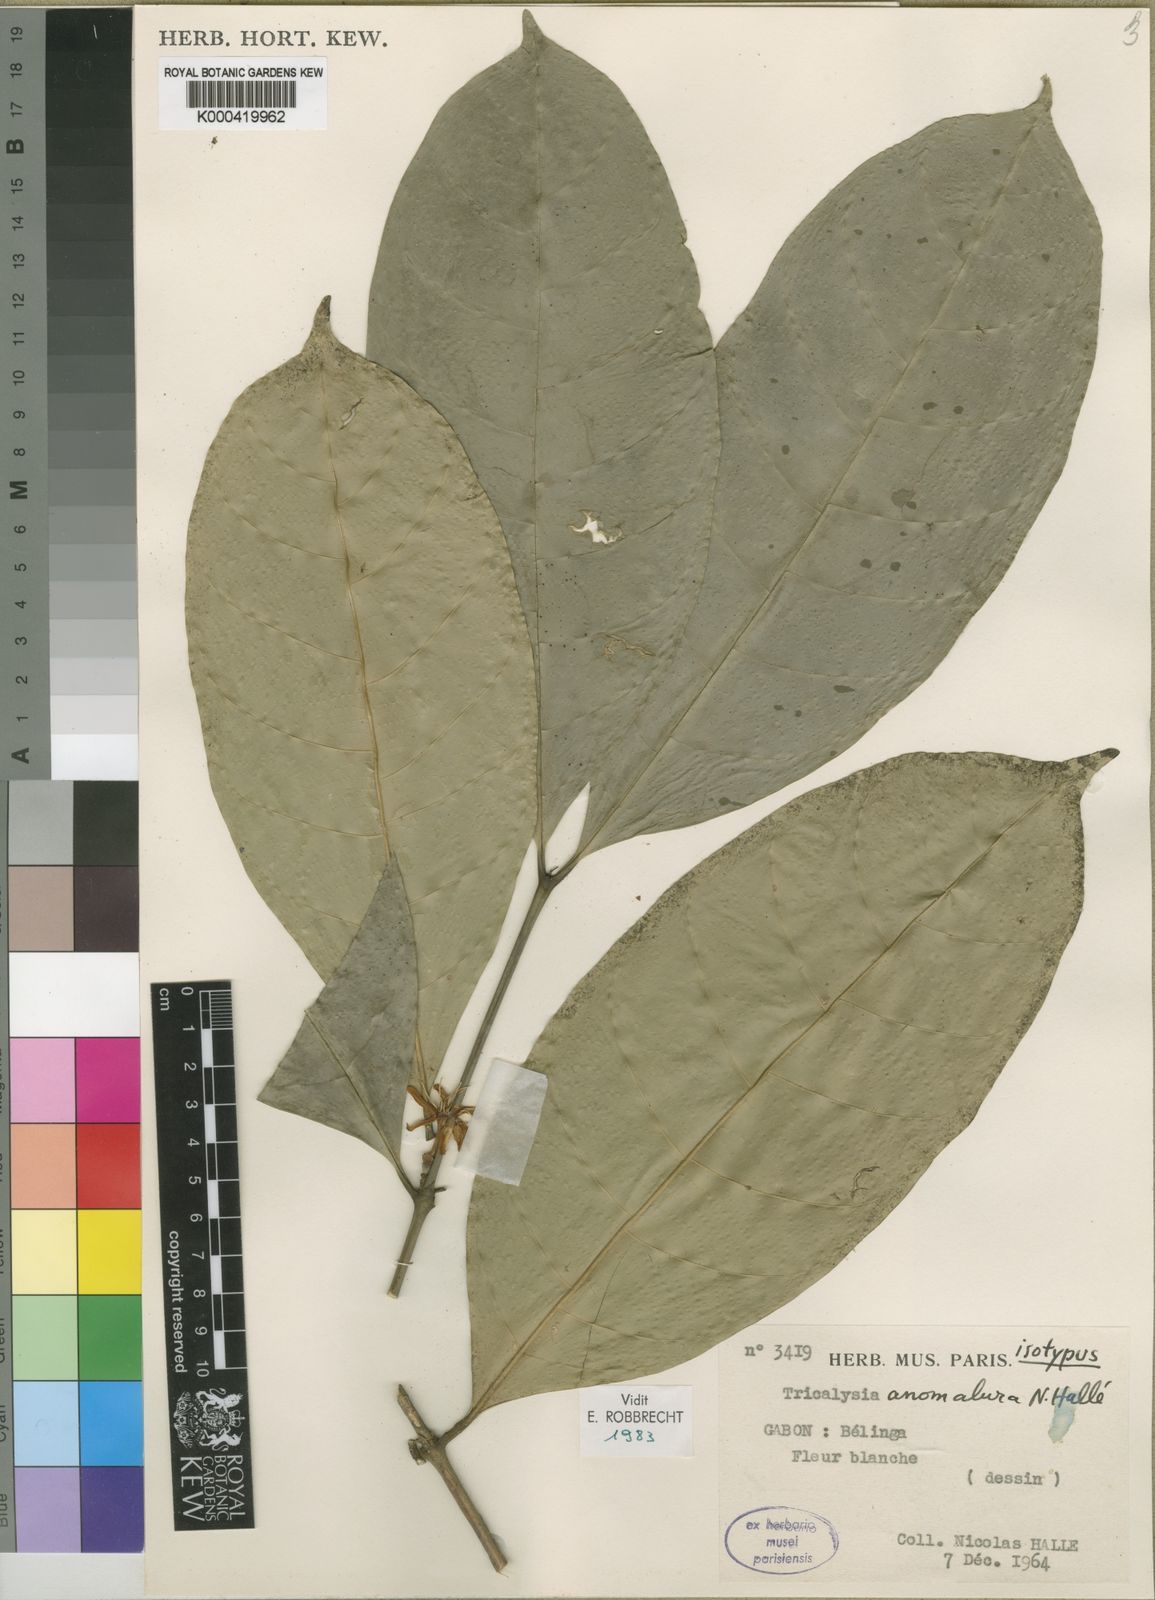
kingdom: Plantae
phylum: Tracheophyta
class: Magnoliopsida
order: Gentianales
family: Rubiaceae
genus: Tricalysia
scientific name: Tricalysia lasiodelphys
